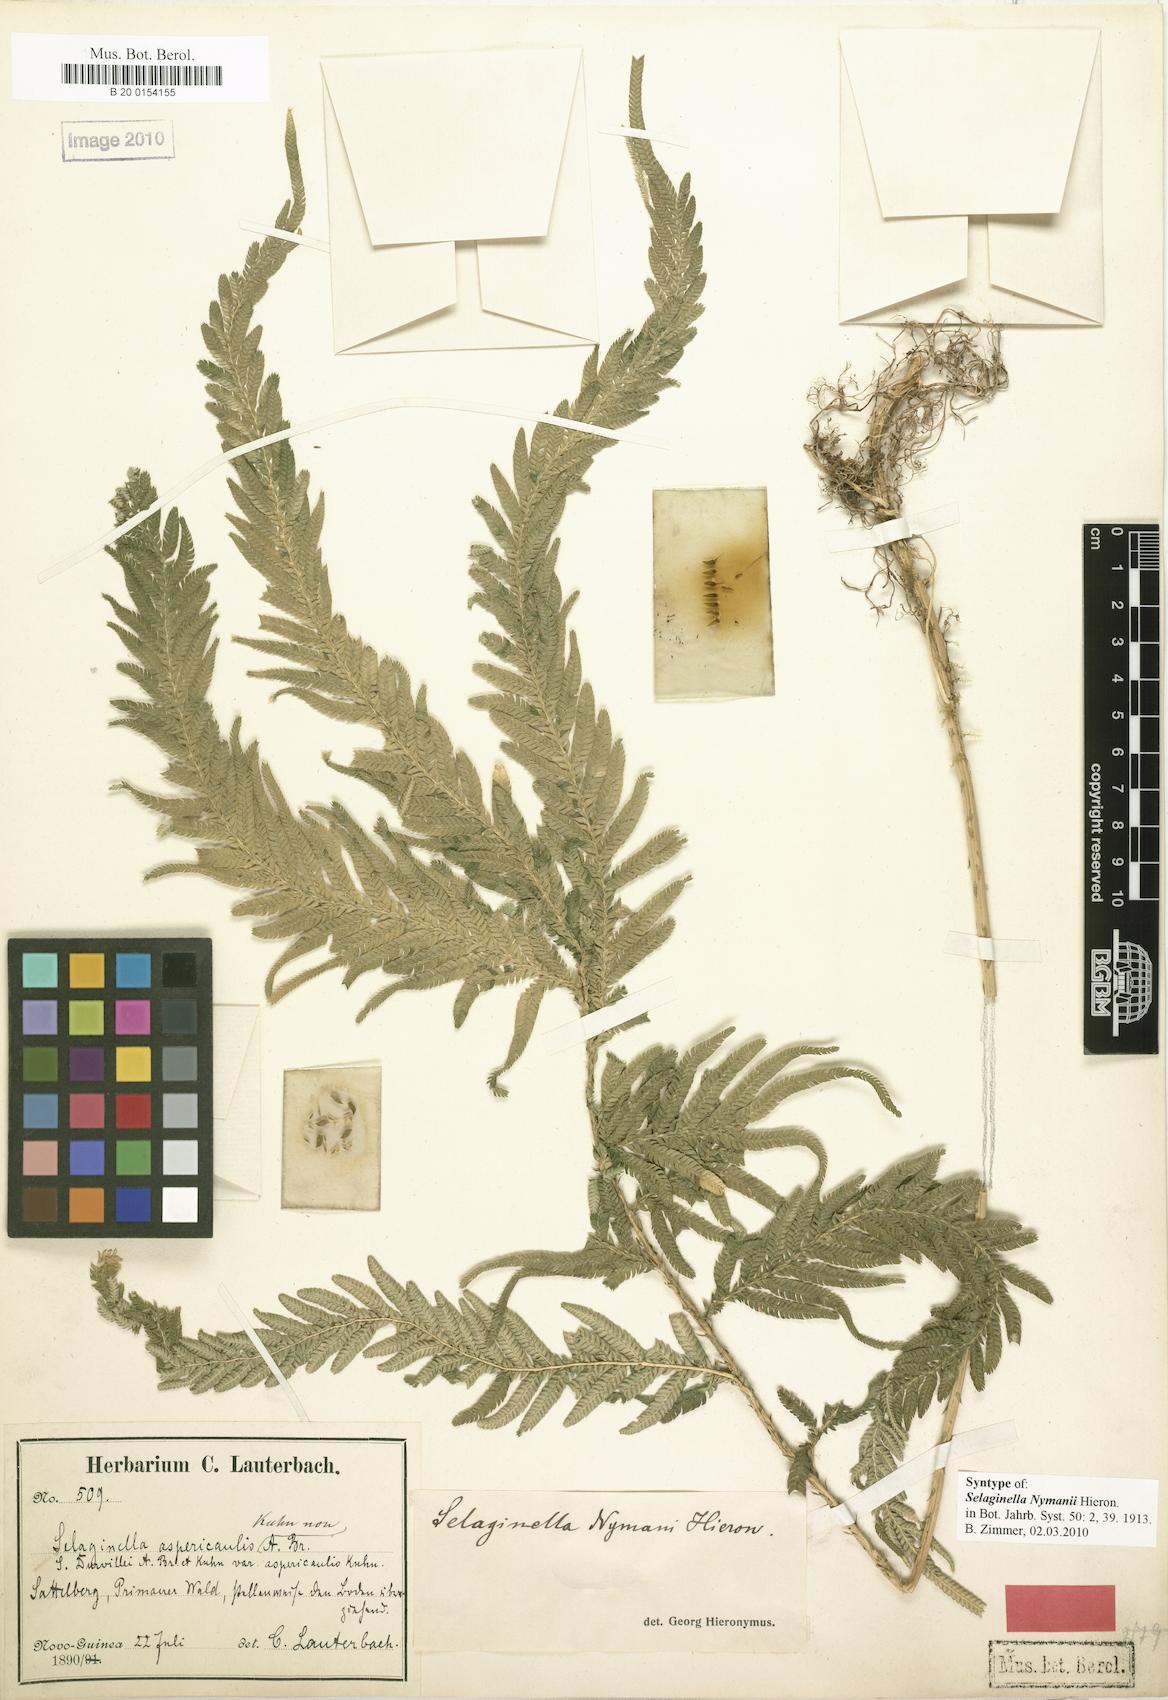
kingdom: Plantae
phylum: Tracheophyta
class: Lycopodiopsida
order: Selaginellales
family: Selaginellaceae
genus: Selaginella
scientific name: Selaginella gracilis
